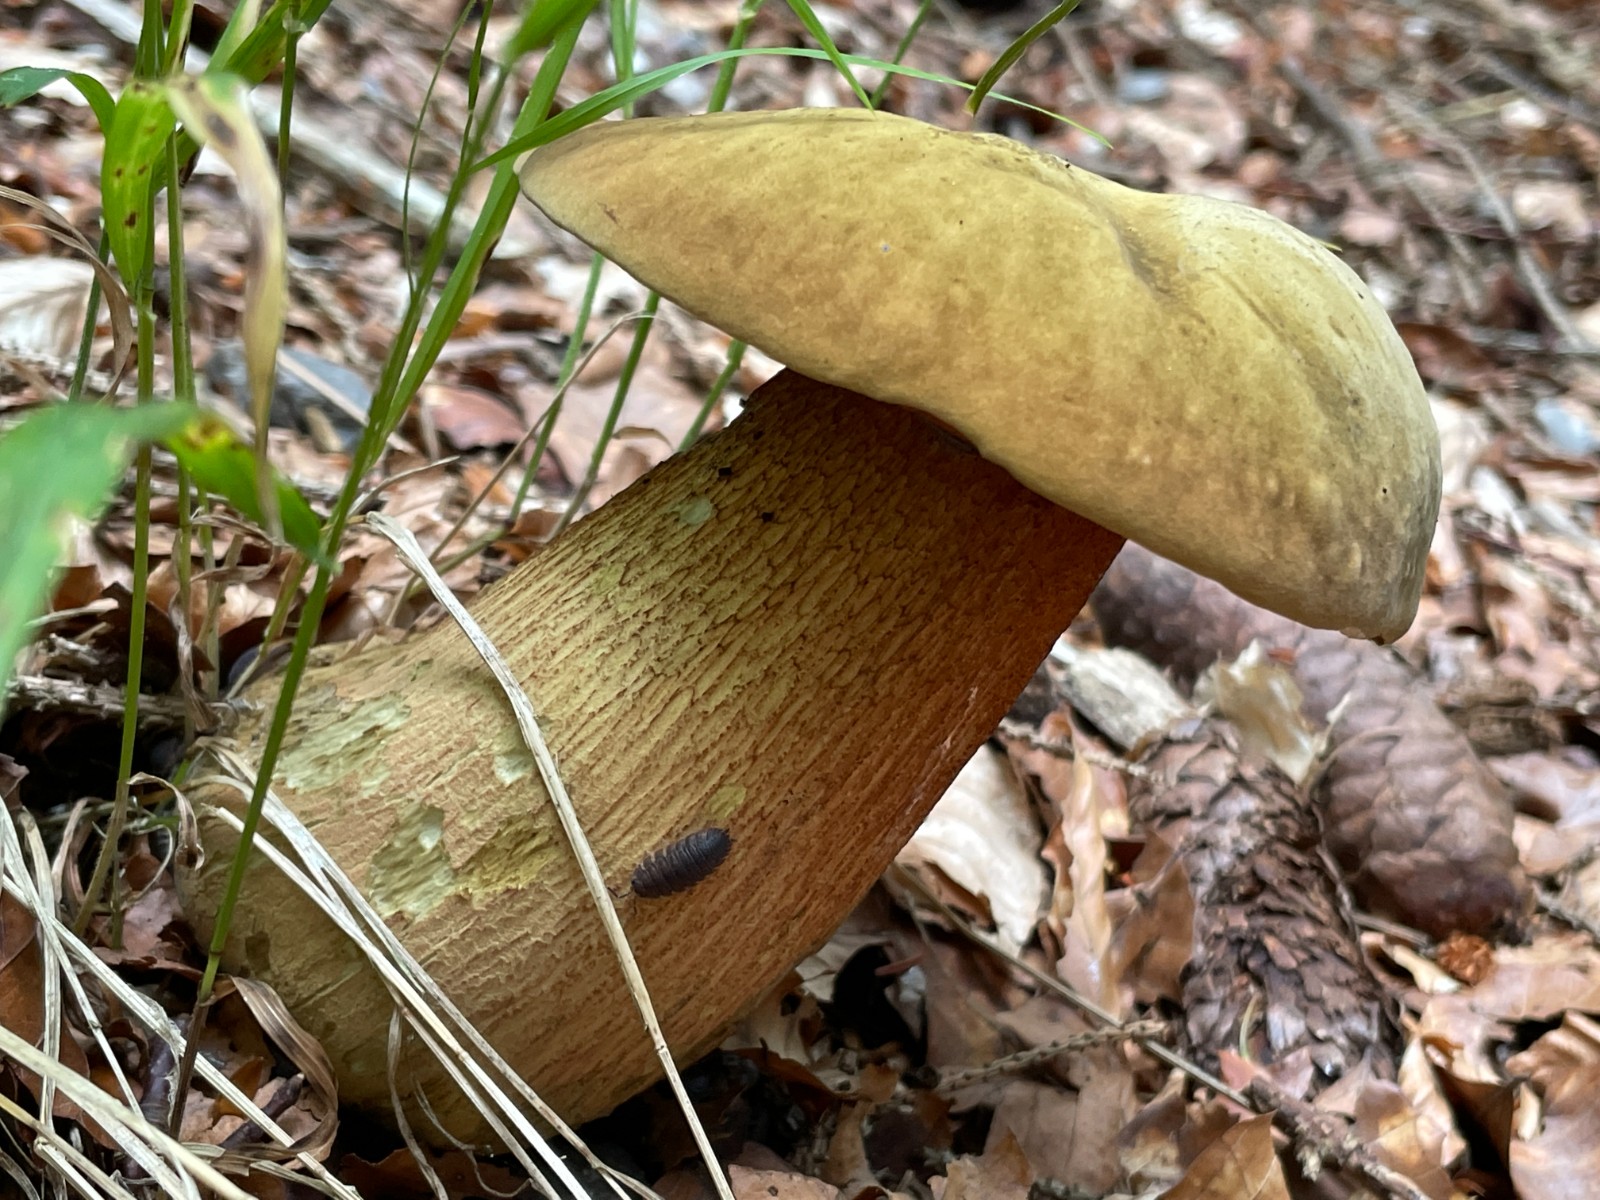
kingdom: Fungi
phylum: Basidiomycota
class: Agaricomycetes
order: Boletales
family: Boletaceae
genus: Suillellus
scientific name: Suillellus luridus
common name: netstokket indigorørhat
